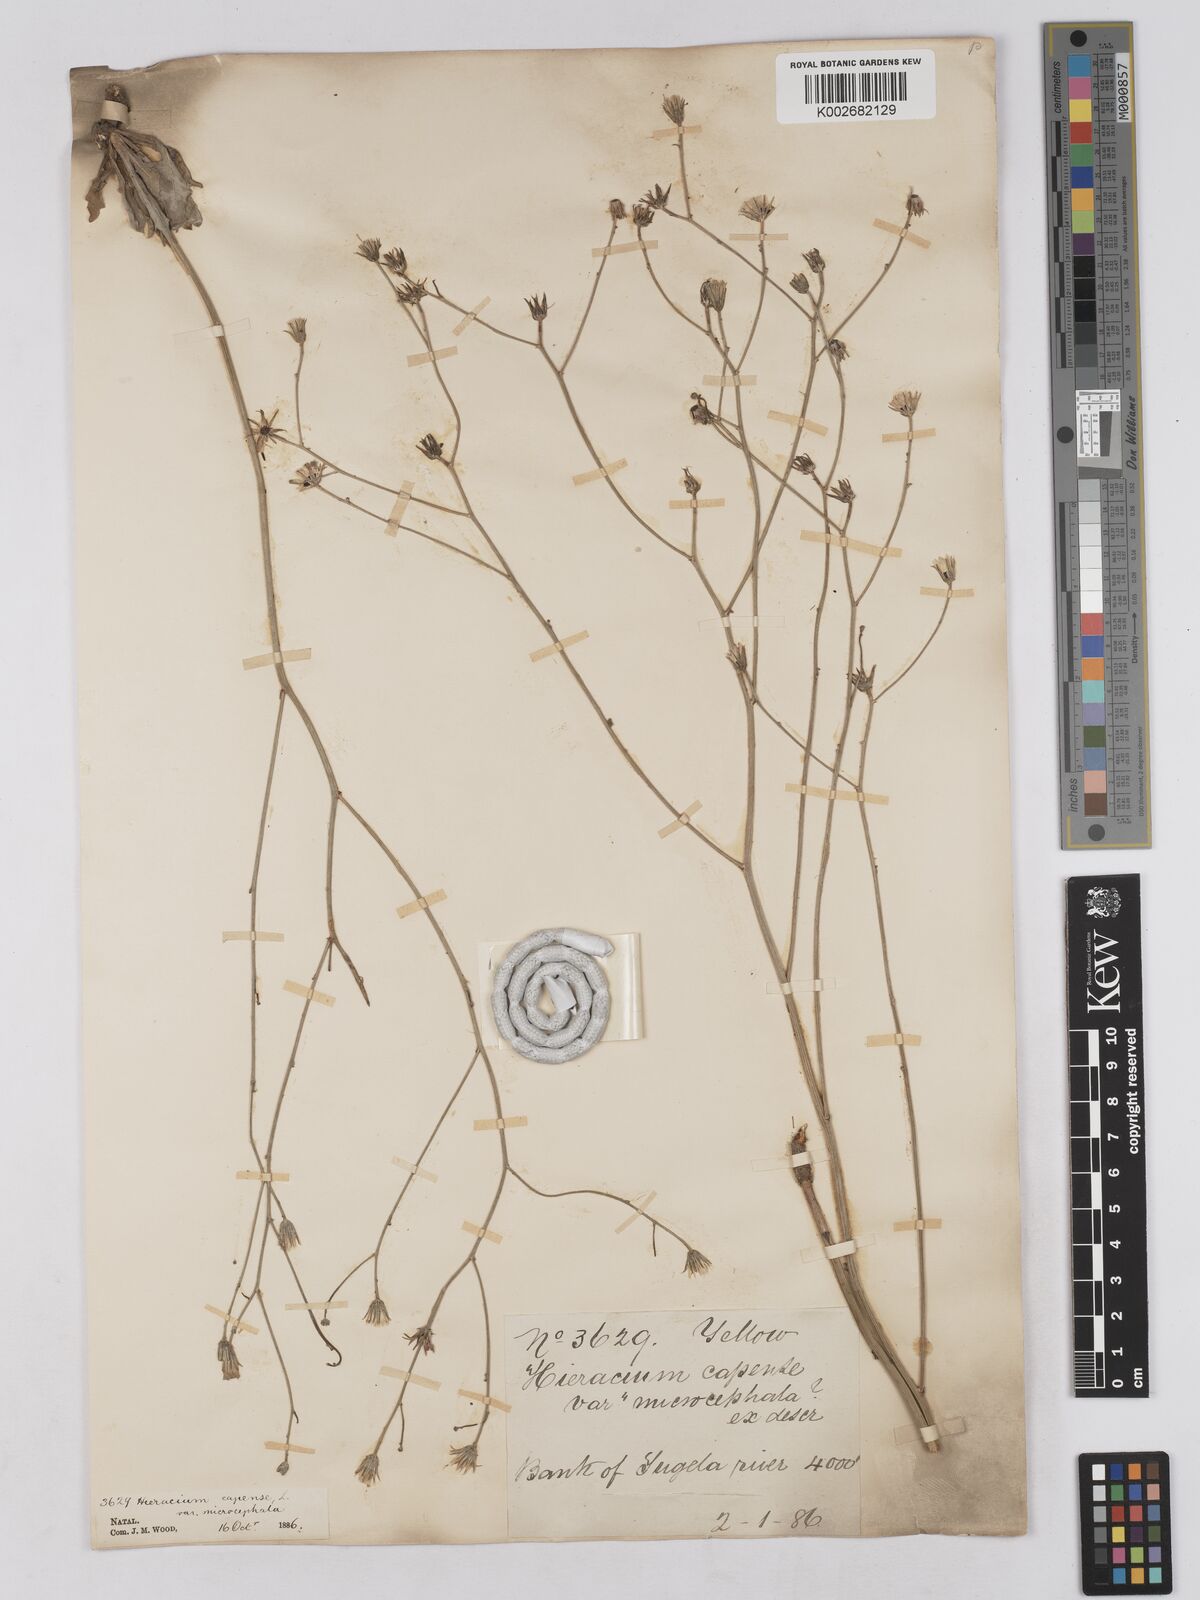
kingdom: Plantae
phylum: Tracheophyta
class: Magnoliopsida
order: Asterales
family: Asteraceae
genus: Tolpis
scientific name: Tolpis capensis
